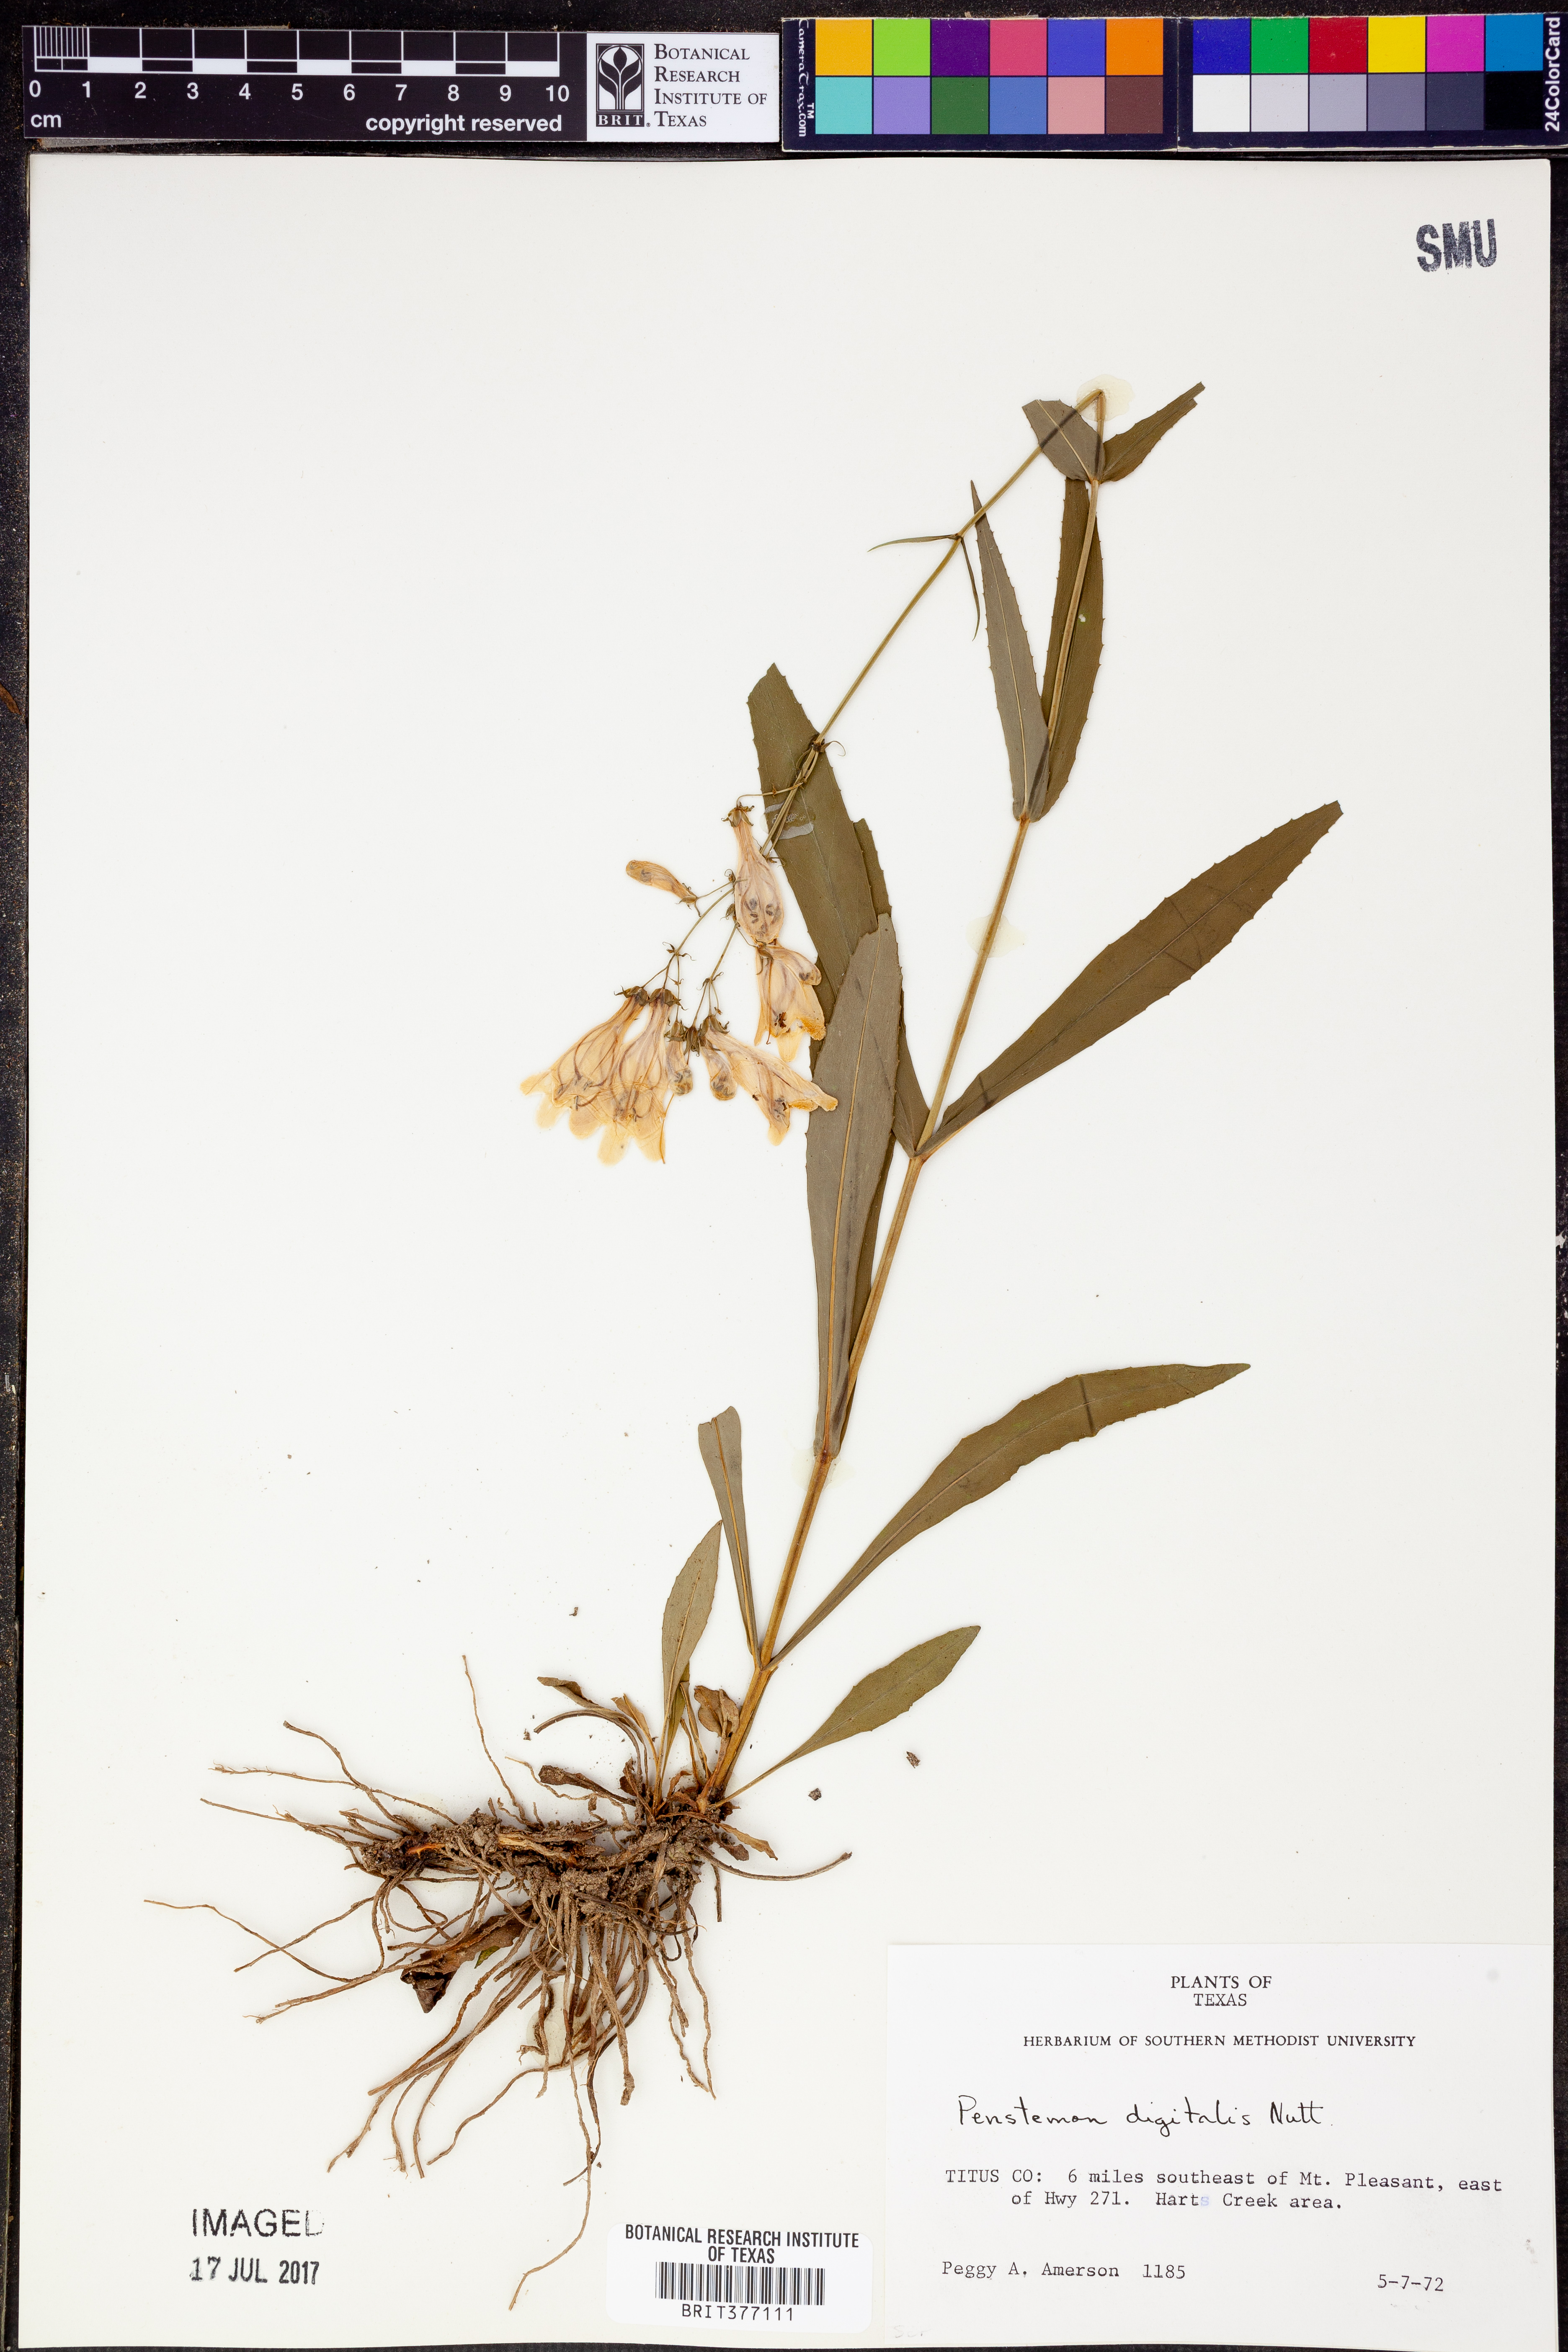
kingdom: Plantae
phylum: Tracheophyta
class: Magnoliopsida
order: Lamiales
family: Plantaginaceae
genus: Penstemon
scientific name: Penstemon digitalis
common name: Foxglove beardtongue
